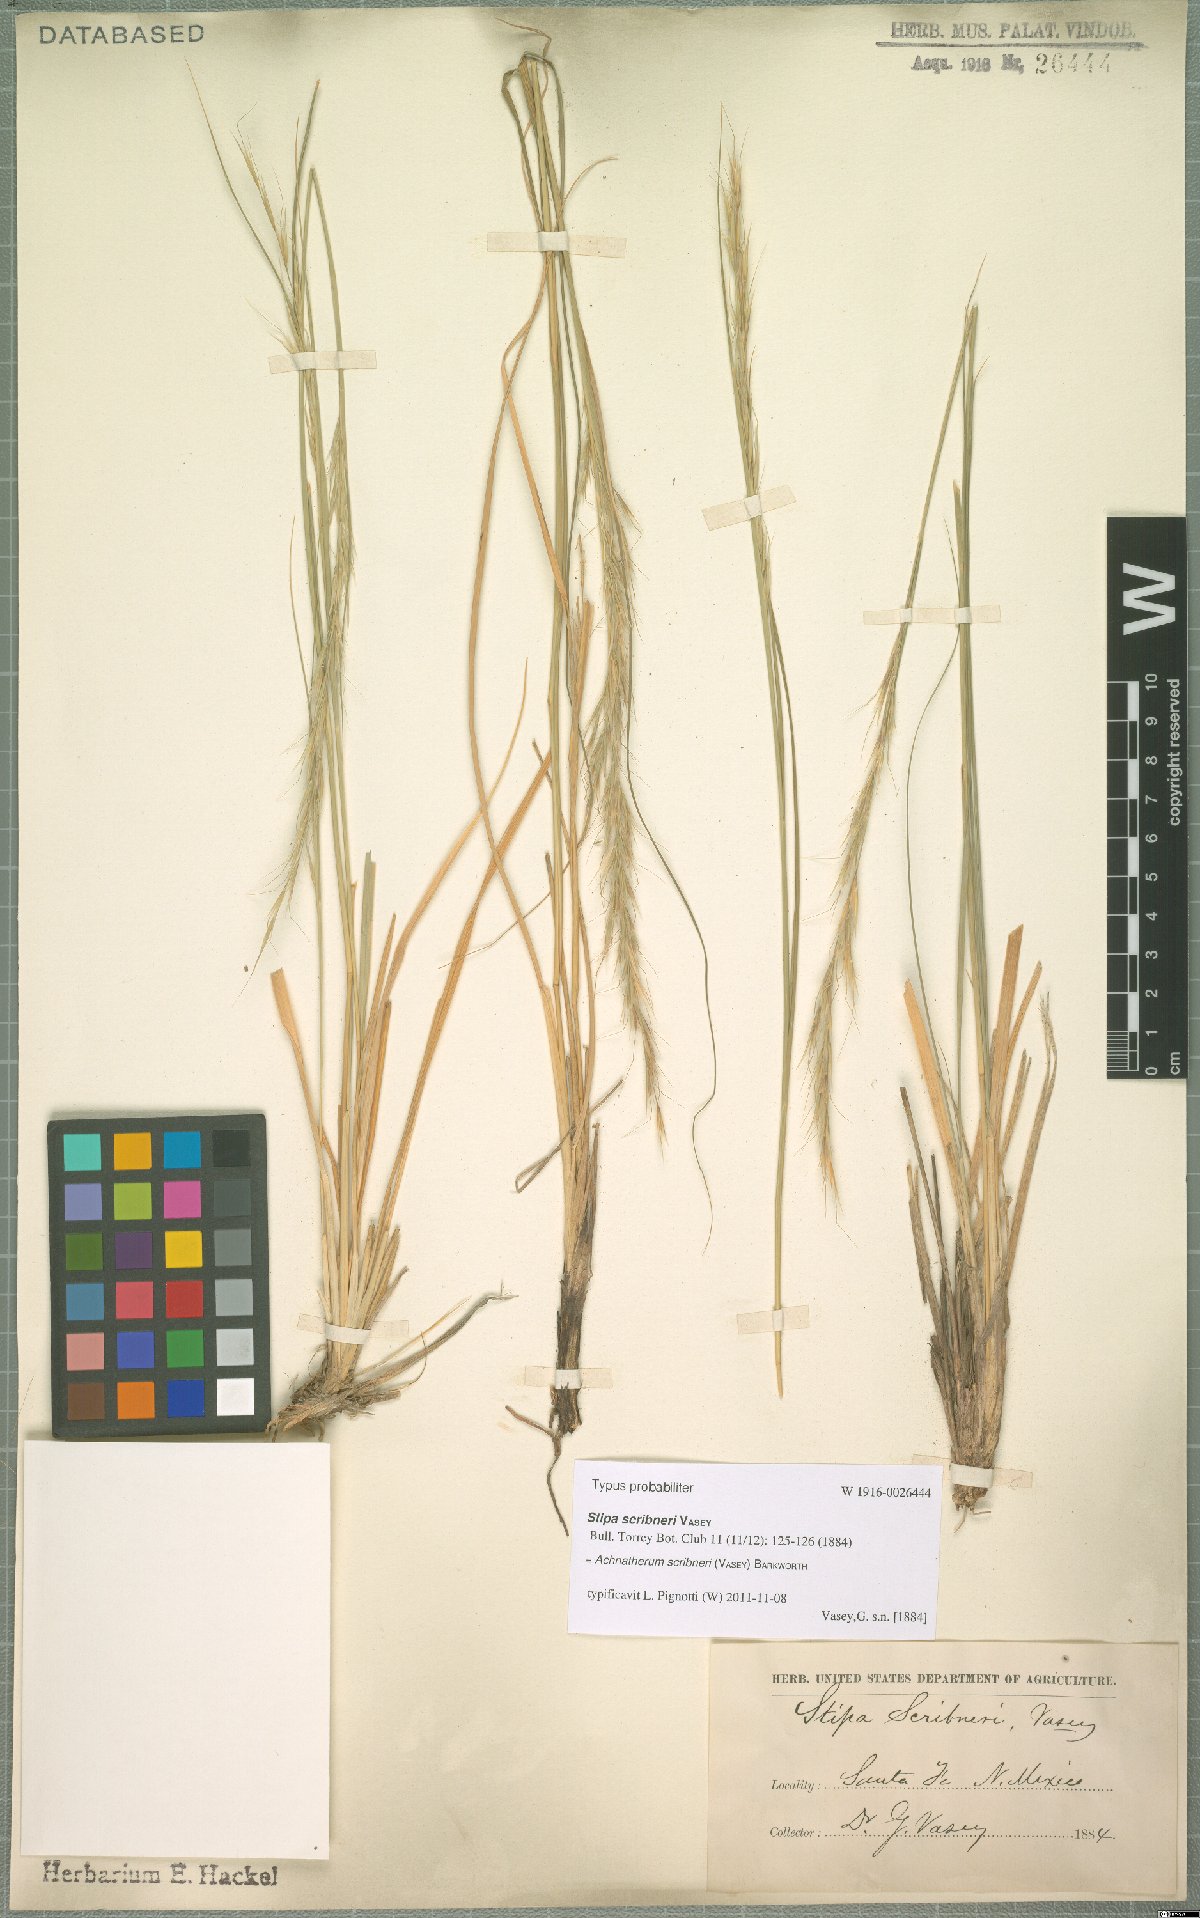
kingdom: Plantae
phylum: Tracheophyta
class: Liliopsida
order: Poales
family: Poaceae
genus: Eriocoma
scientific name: Eriocoma scribneri
